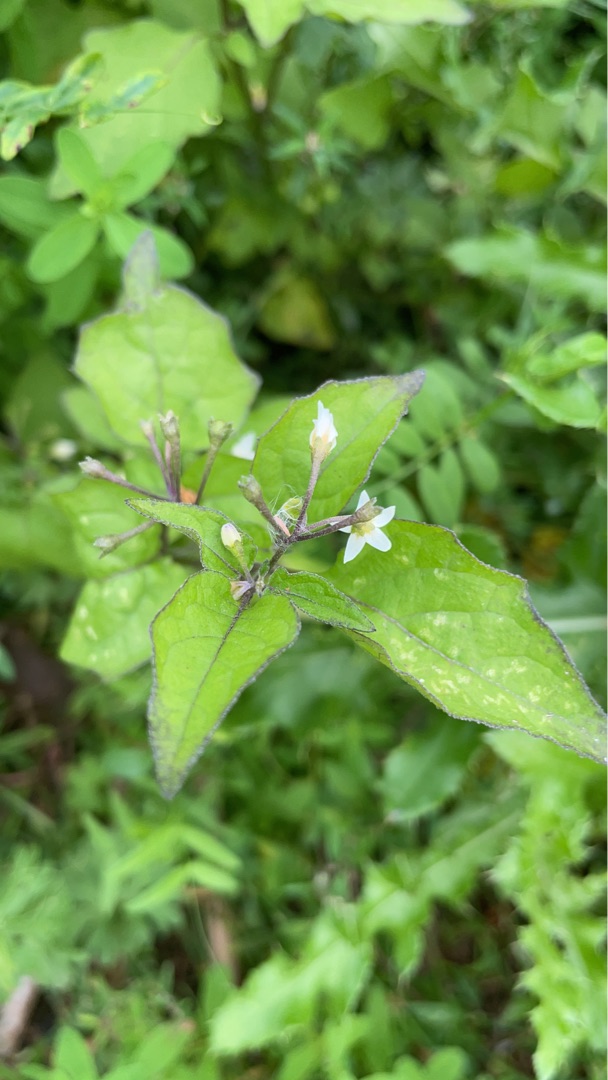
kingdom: Plantae
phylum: Tracheophyta
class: Magnoliopsida
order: Solanales
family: Solanaceae
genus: Solanum
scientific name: Solanum nigrum
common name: Sort natskygge (underart)
